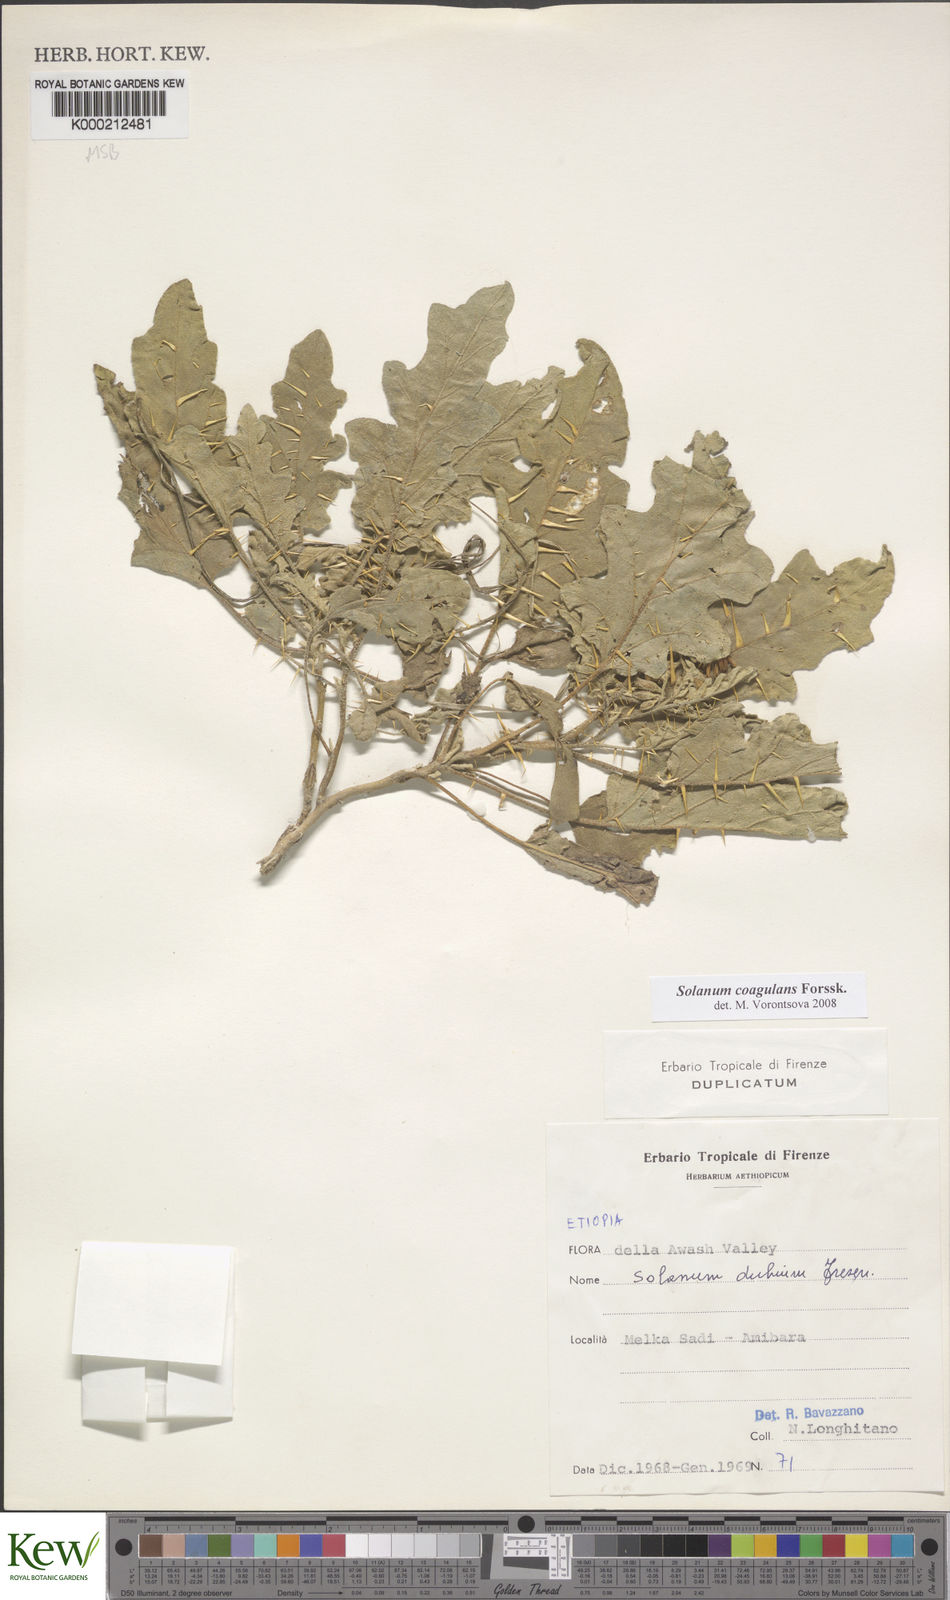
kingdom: Plantae
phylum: Tracheophyta
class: Magnoliopsida
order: Solanales
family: Solanaceae
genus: Solanum
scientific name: Solanum coagulans
